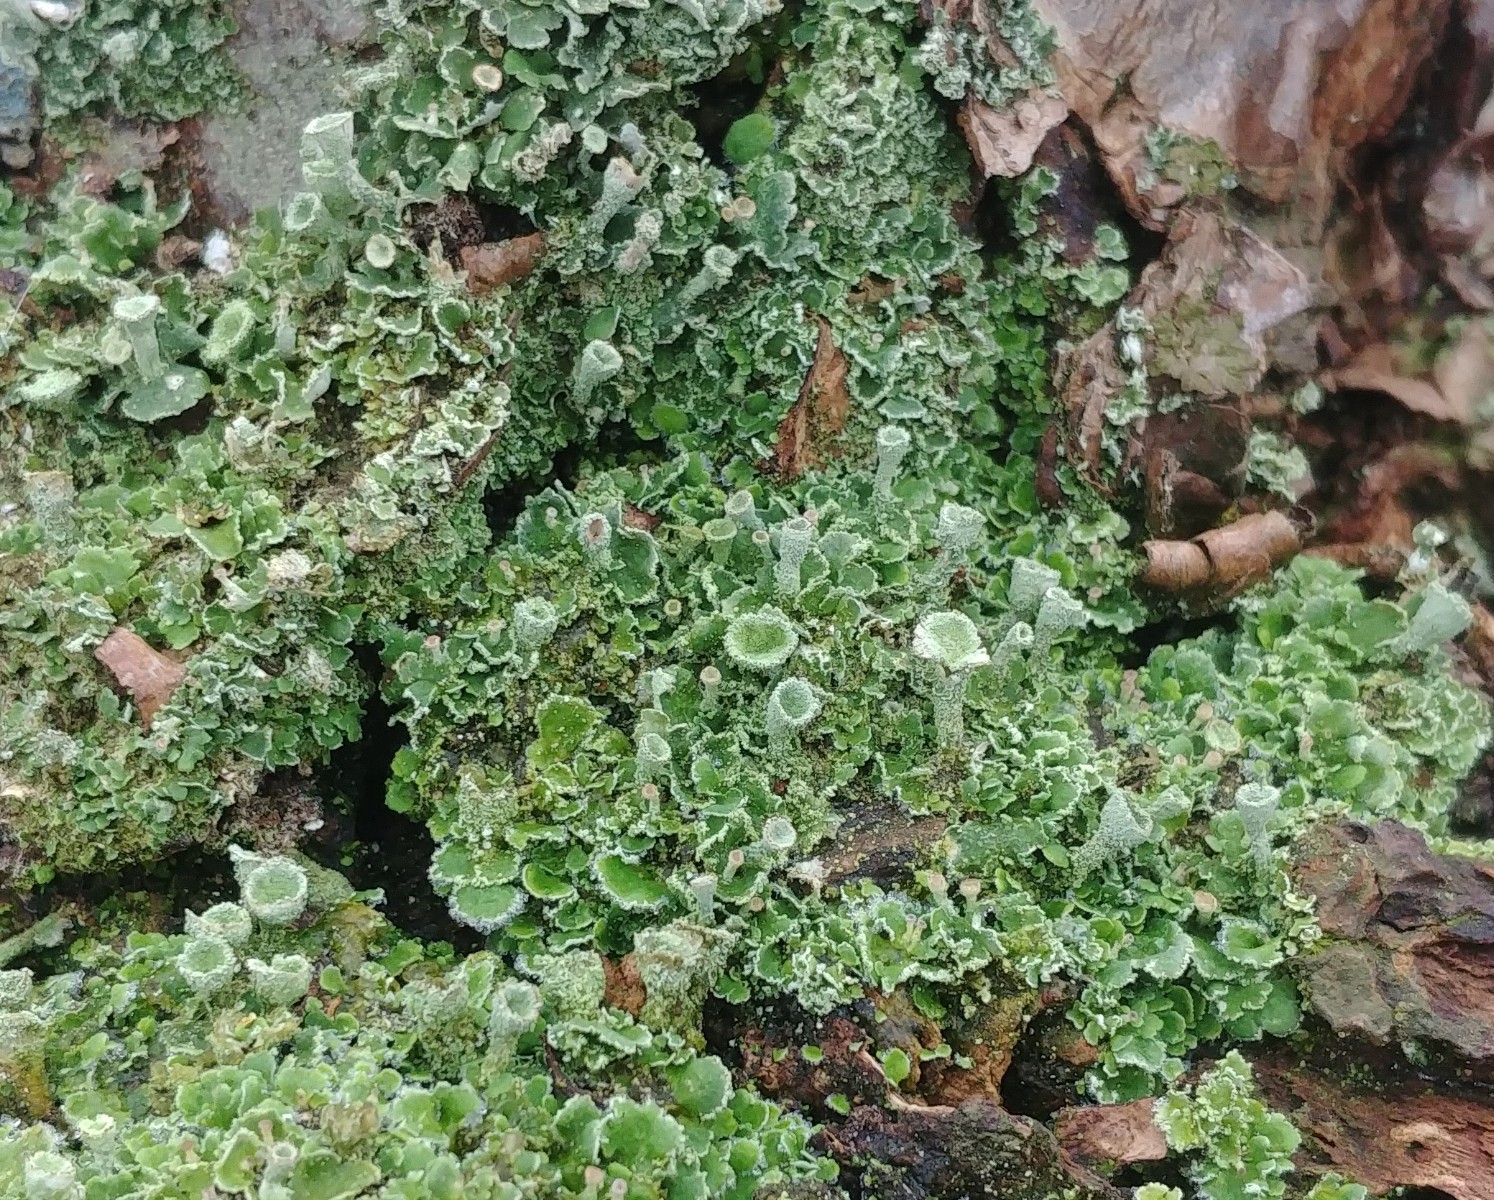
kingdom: Fungi
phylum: Ascomycota
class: Lecanoromycetes
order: Lecanorales
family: Cladoniaceae
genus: Cladonia
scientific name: Cladonia humilis
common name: lav bægerlav
